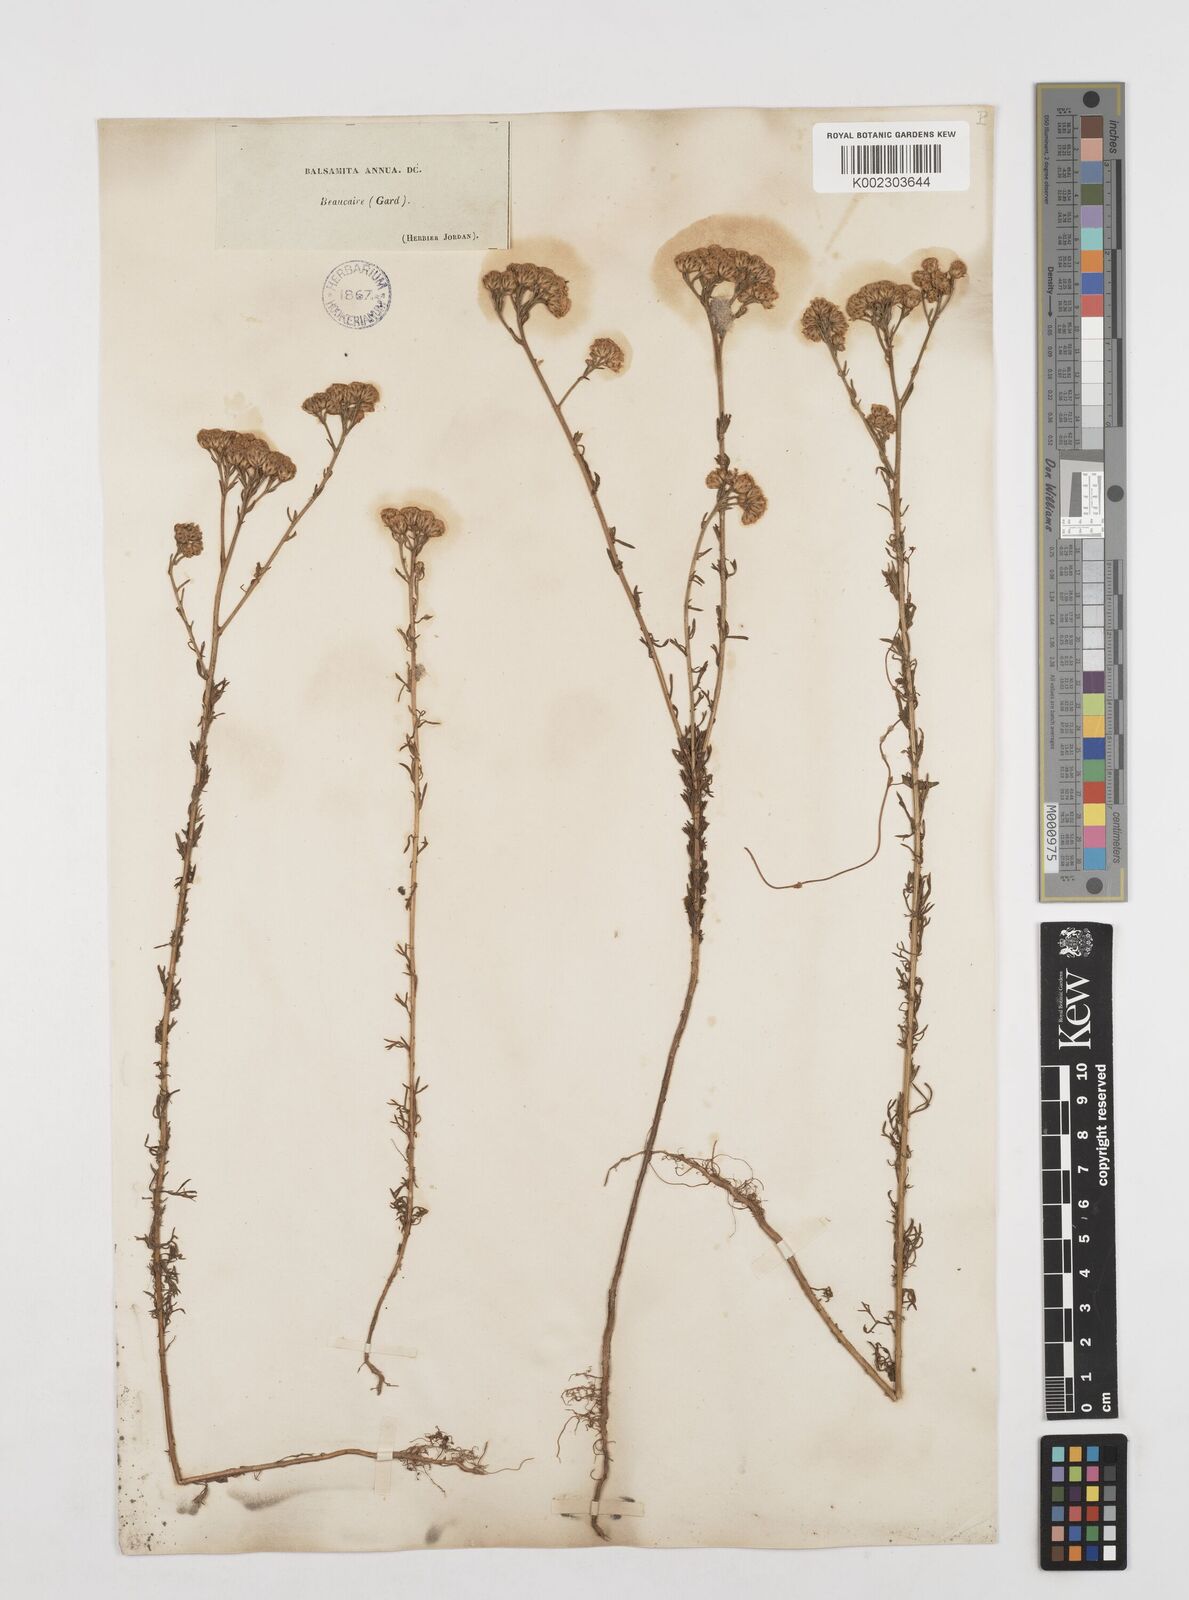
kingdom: Plantae
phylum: Tracheophyta
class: Magnoliopsida
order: Asterales
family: Asteraceae
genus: Vogtia
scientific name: Vogtia annua
